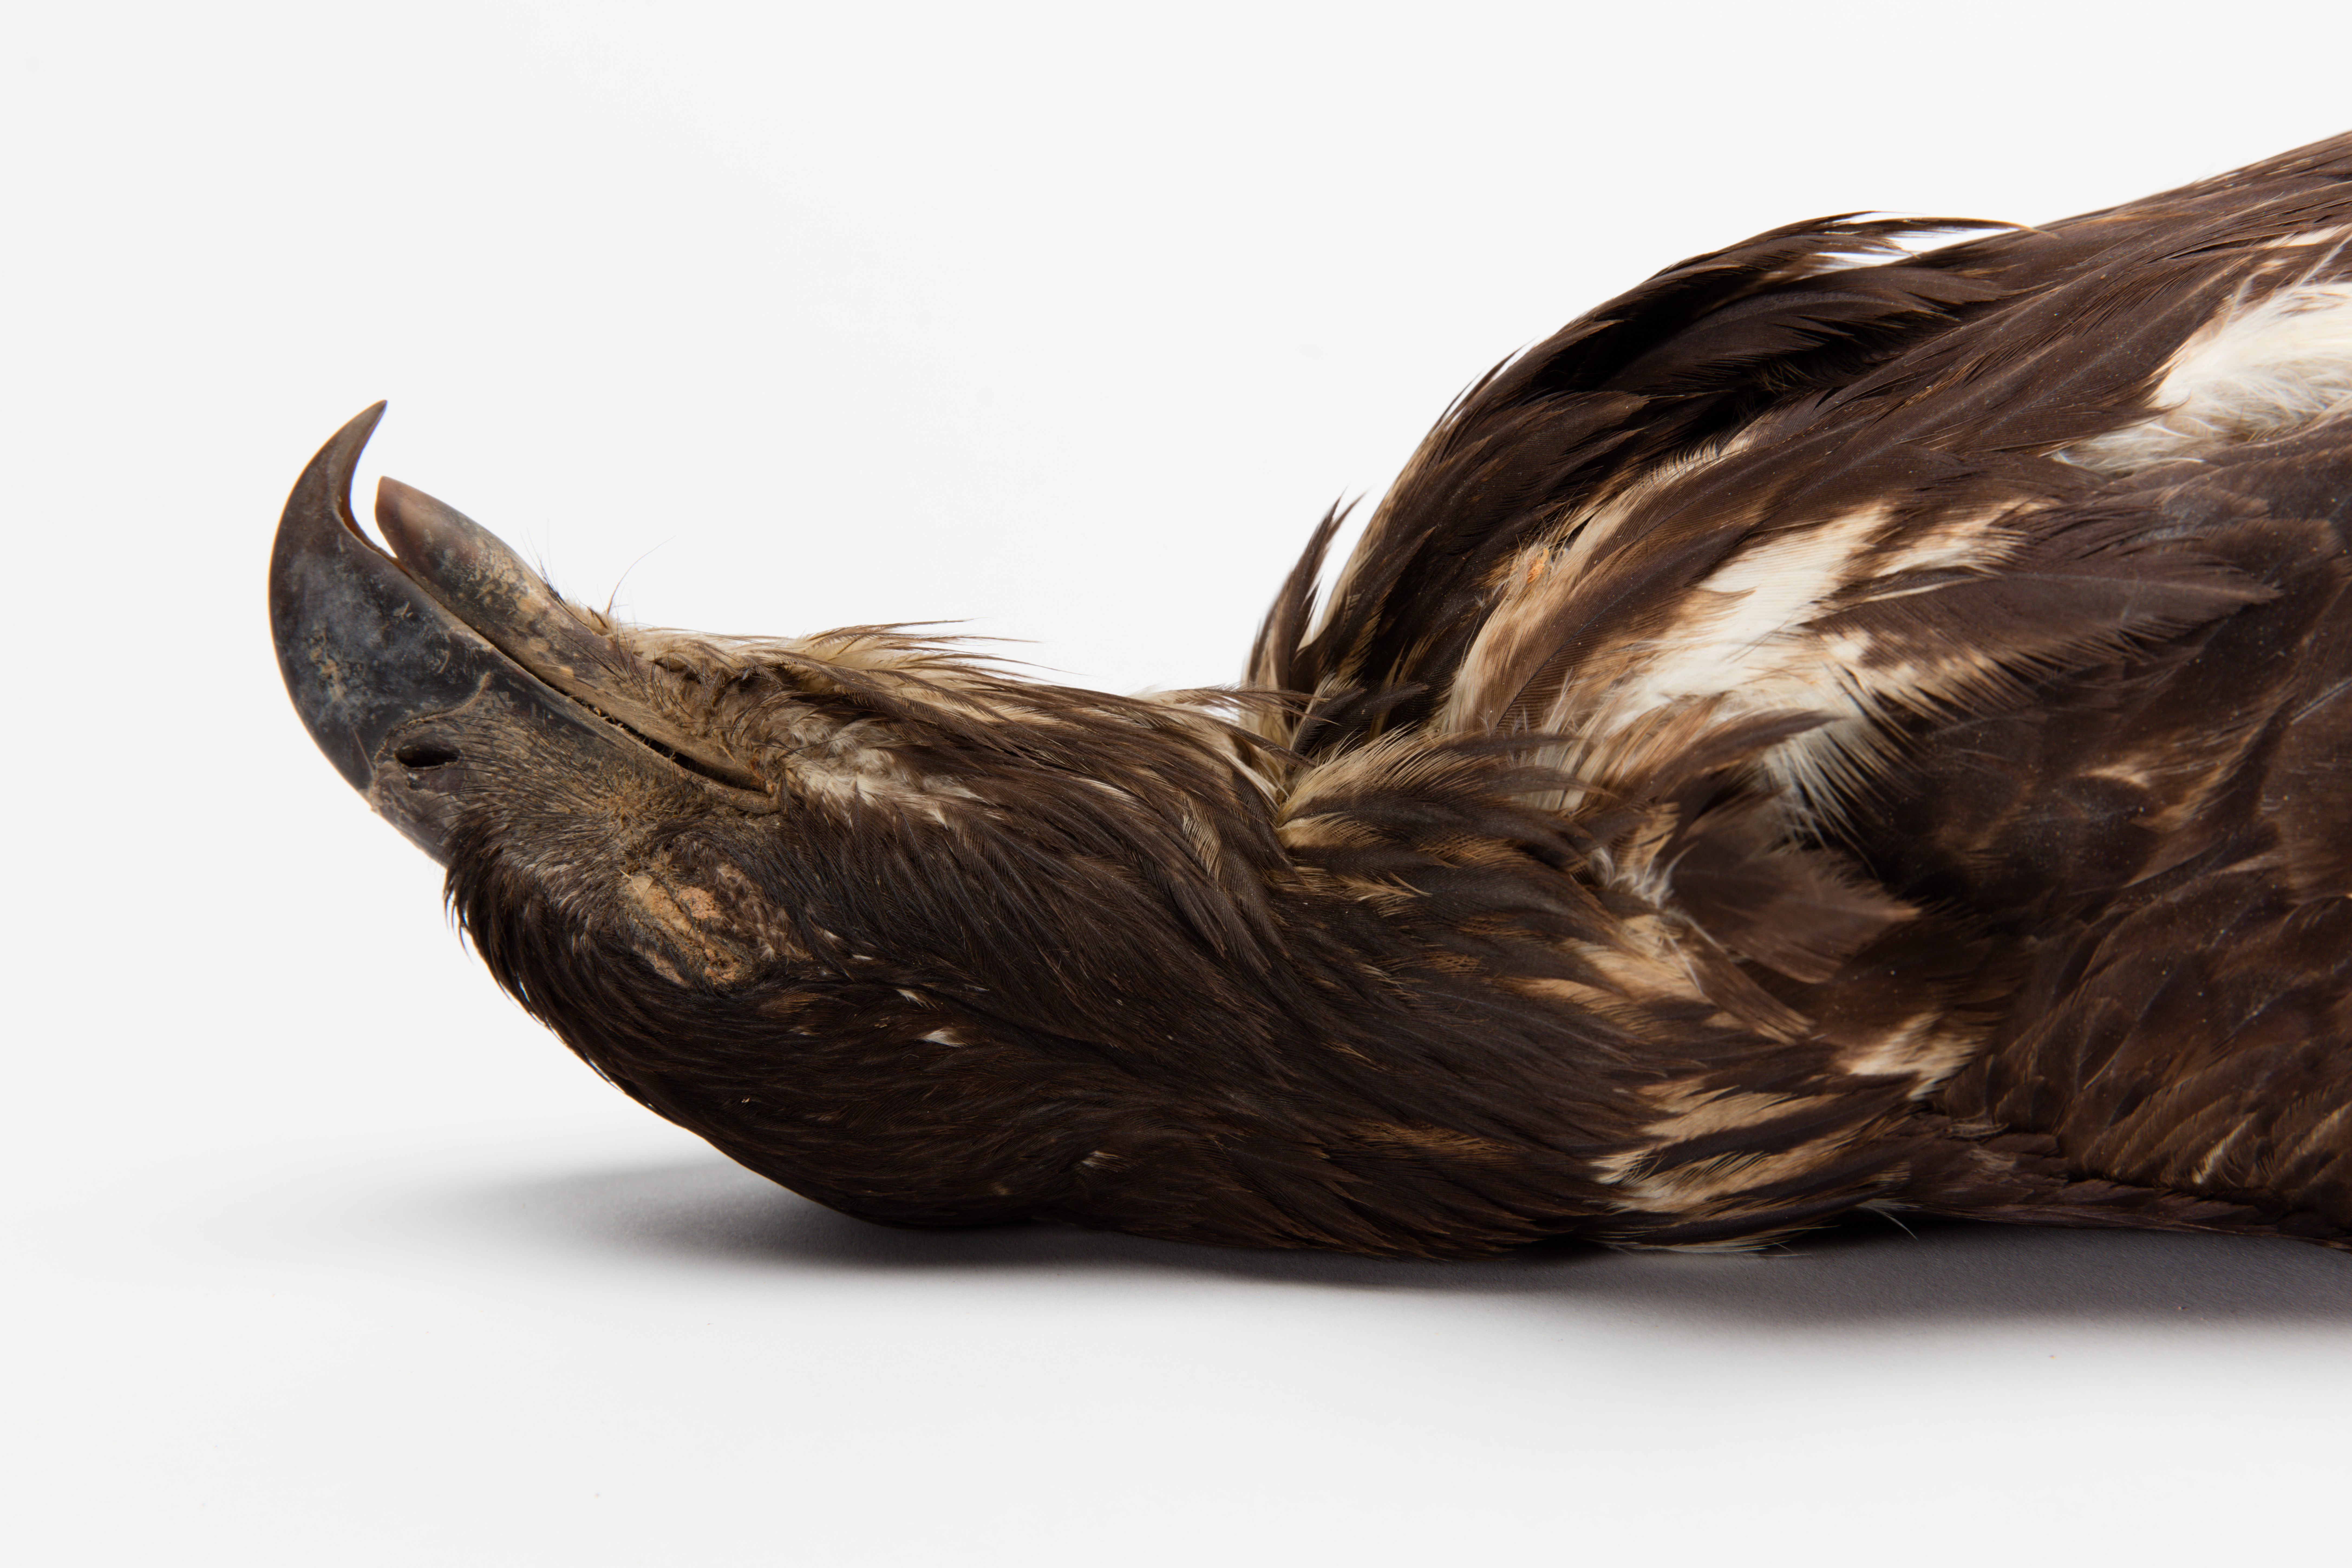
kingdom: Animalia
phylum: Chordata
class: Aves
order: Accipitriformes
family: Accipitridae
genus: Haliaeetus
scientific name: Haliaeetus leucocephalus
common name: Bald eagle
